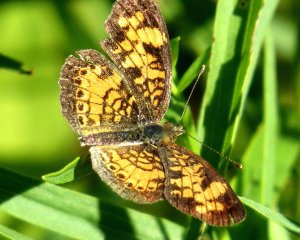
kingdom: Animalia
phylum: Arthropoda
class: Insecta
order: Lepidoptera
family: Nymphalidae
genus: Phyciodes
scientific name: Phyciodes tharos
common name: Northern Crescent
